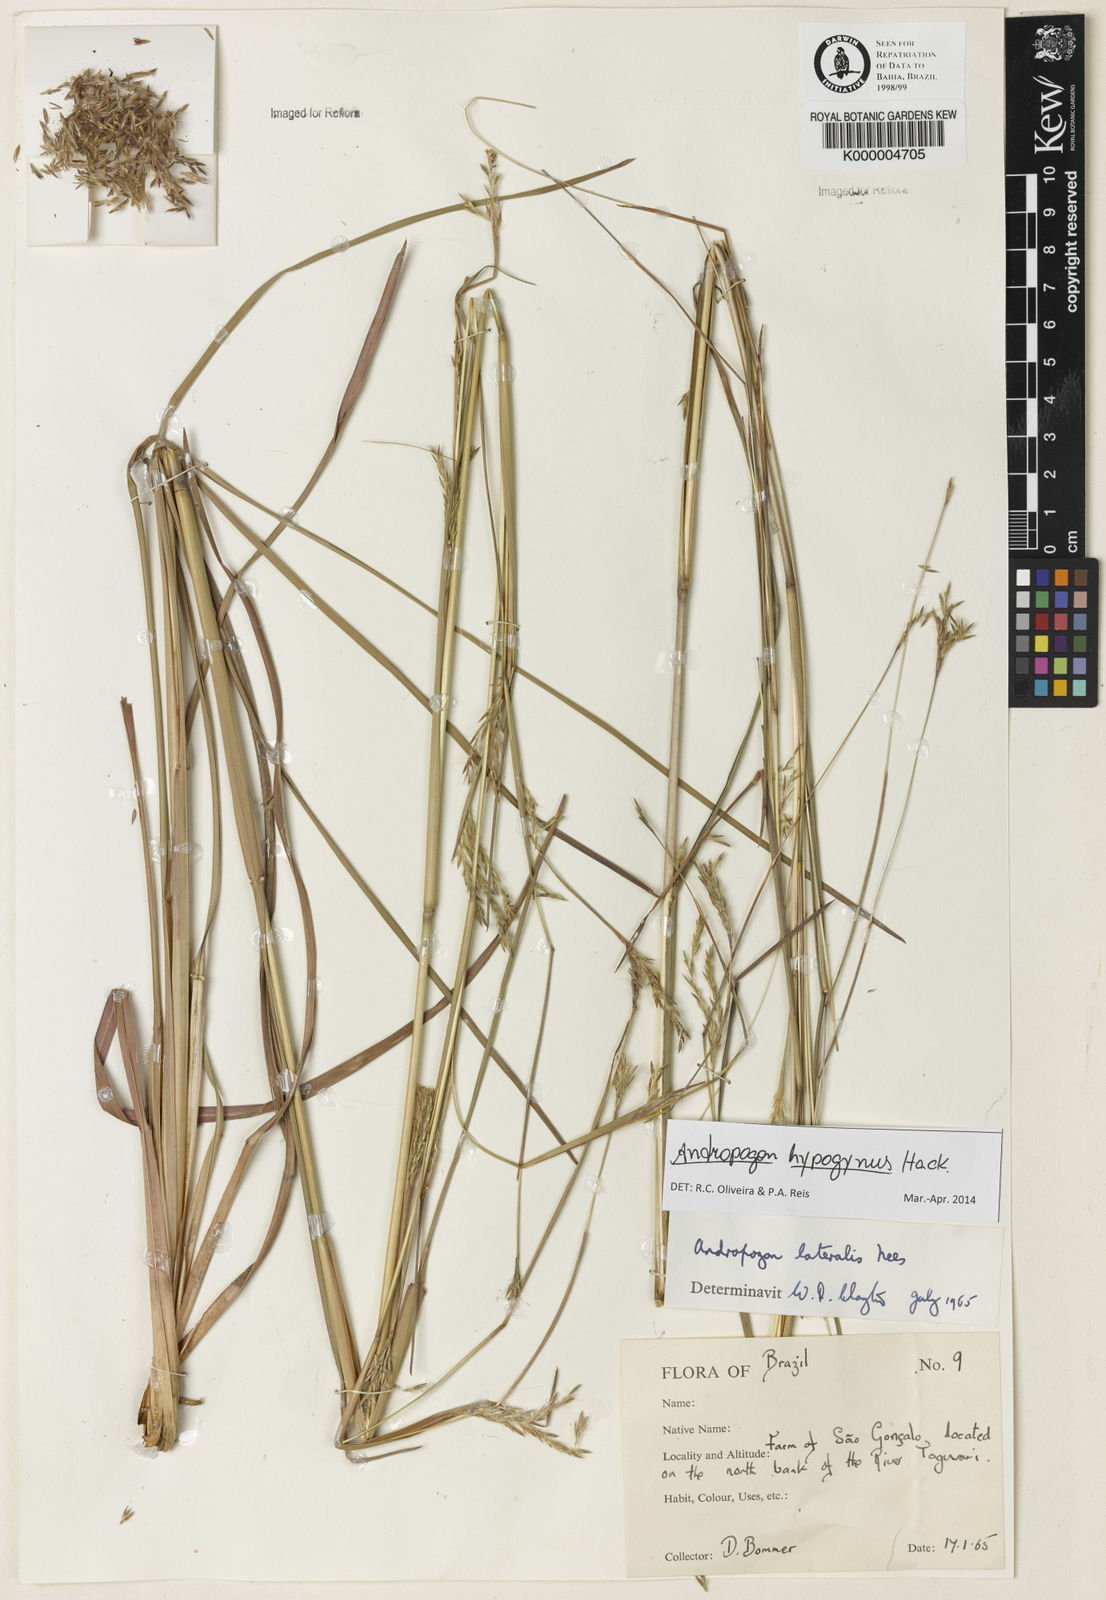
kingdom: Plantae
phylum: Tracheophyta
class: Liliopsida
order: Poales
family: Poaceae
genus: Andropogon
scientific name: Andropogon lateralis
